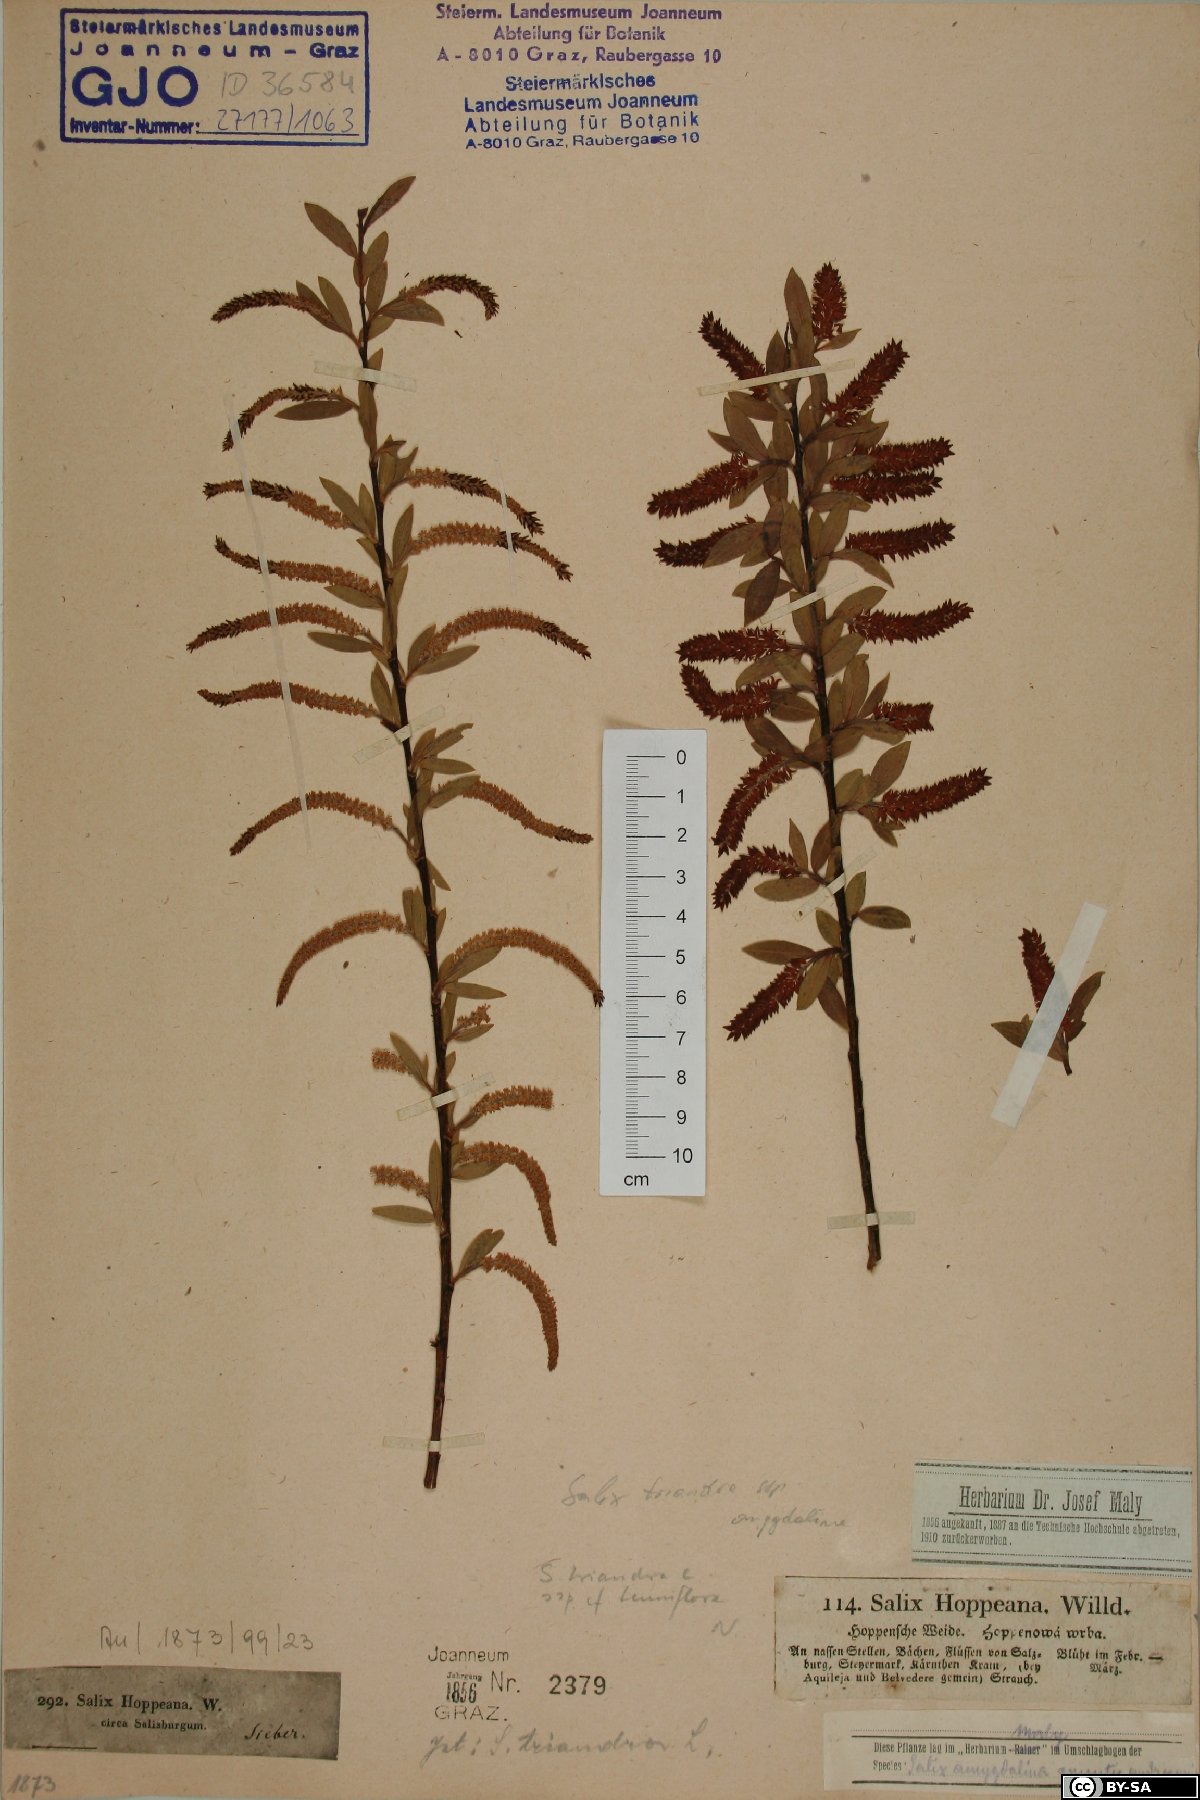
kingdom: Plantae
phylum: Tracheophyta
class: Magnoliopsida
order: Malpighiales
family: Salicaceae
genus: Salix
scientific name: Salix triandra
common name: Almond willow
